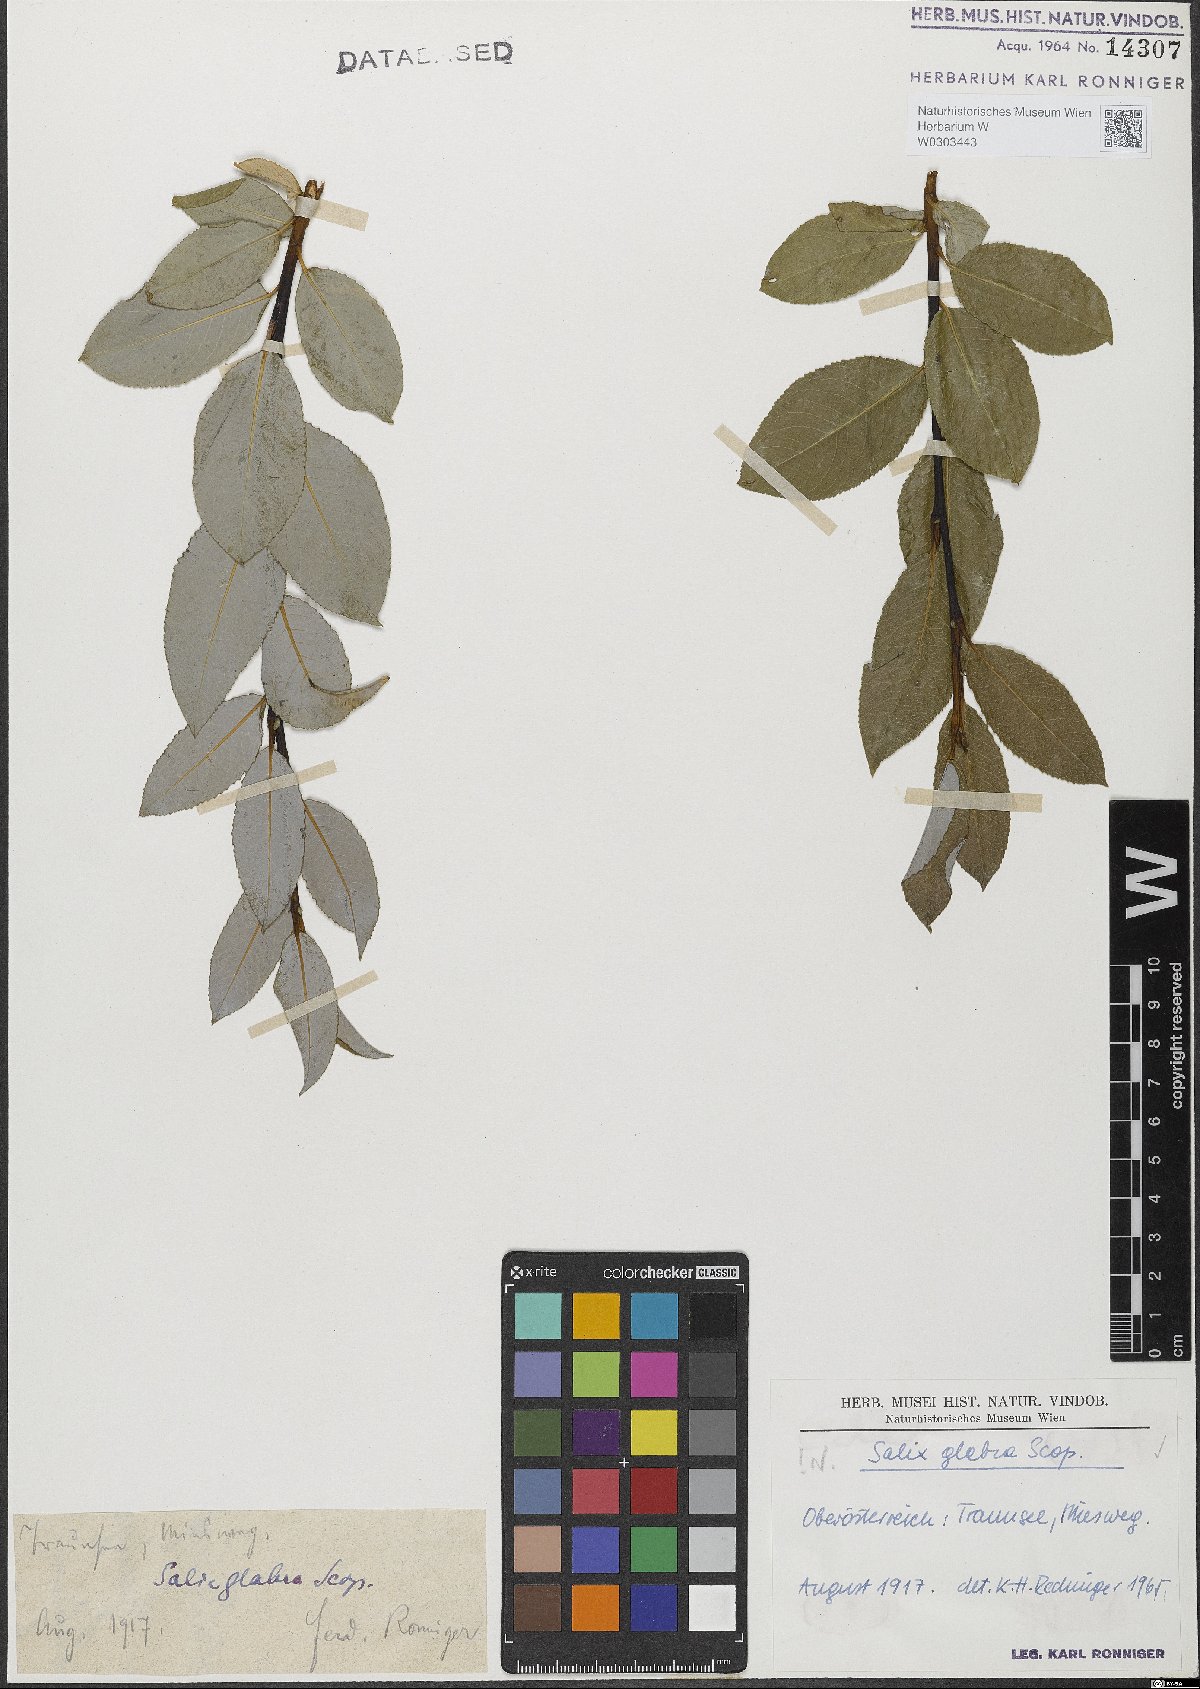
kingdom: Plantae
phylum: Tracheophyta
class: Magnoliopsida
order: Malpighiales
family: Salicaceae
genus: Salix
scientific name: Salix glabra
